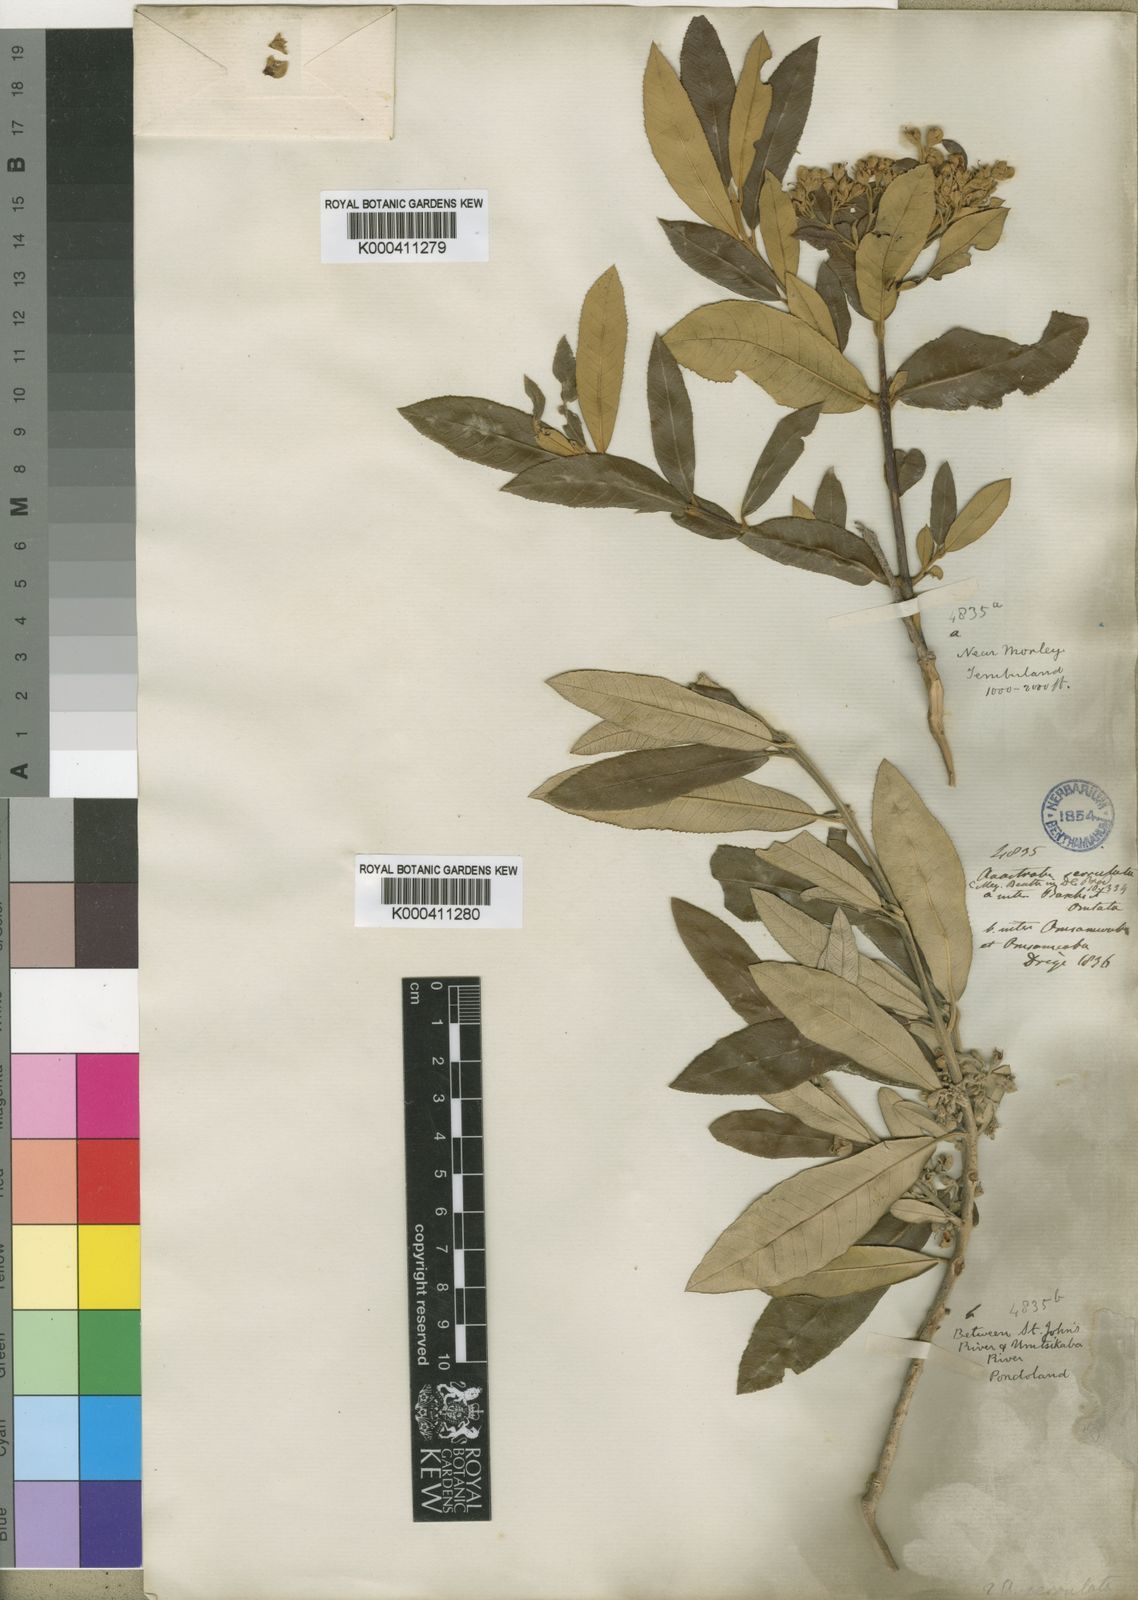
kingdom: Plantae
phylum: Tracheophyta
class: Magnoliopsida
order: Lamiales
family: Stilbaceae
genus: Anastrabe
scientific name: Anastrabe integerrima
